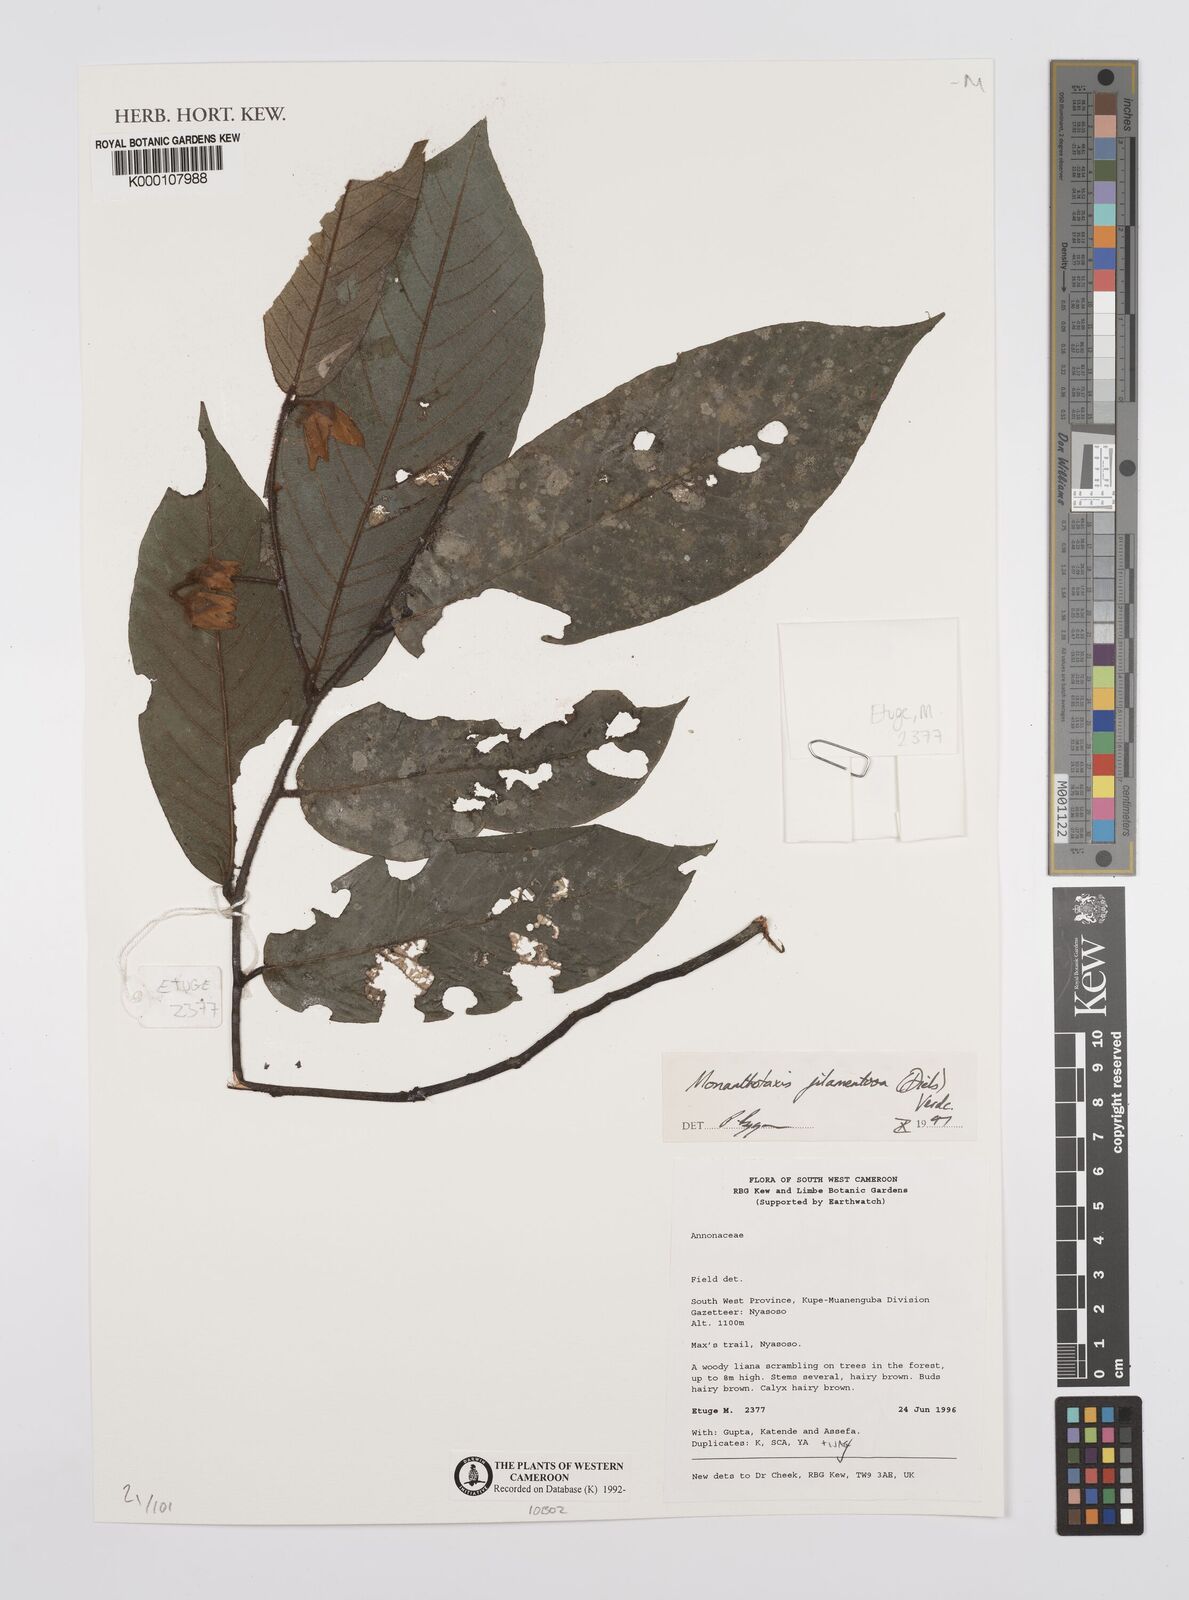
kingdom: Plantae
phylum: Tracheophyta
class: Magnoliopsida
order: Magnoliales
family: Annonaceae
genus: Monanthotaxis
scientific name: Monanthotaxis filamentosa
